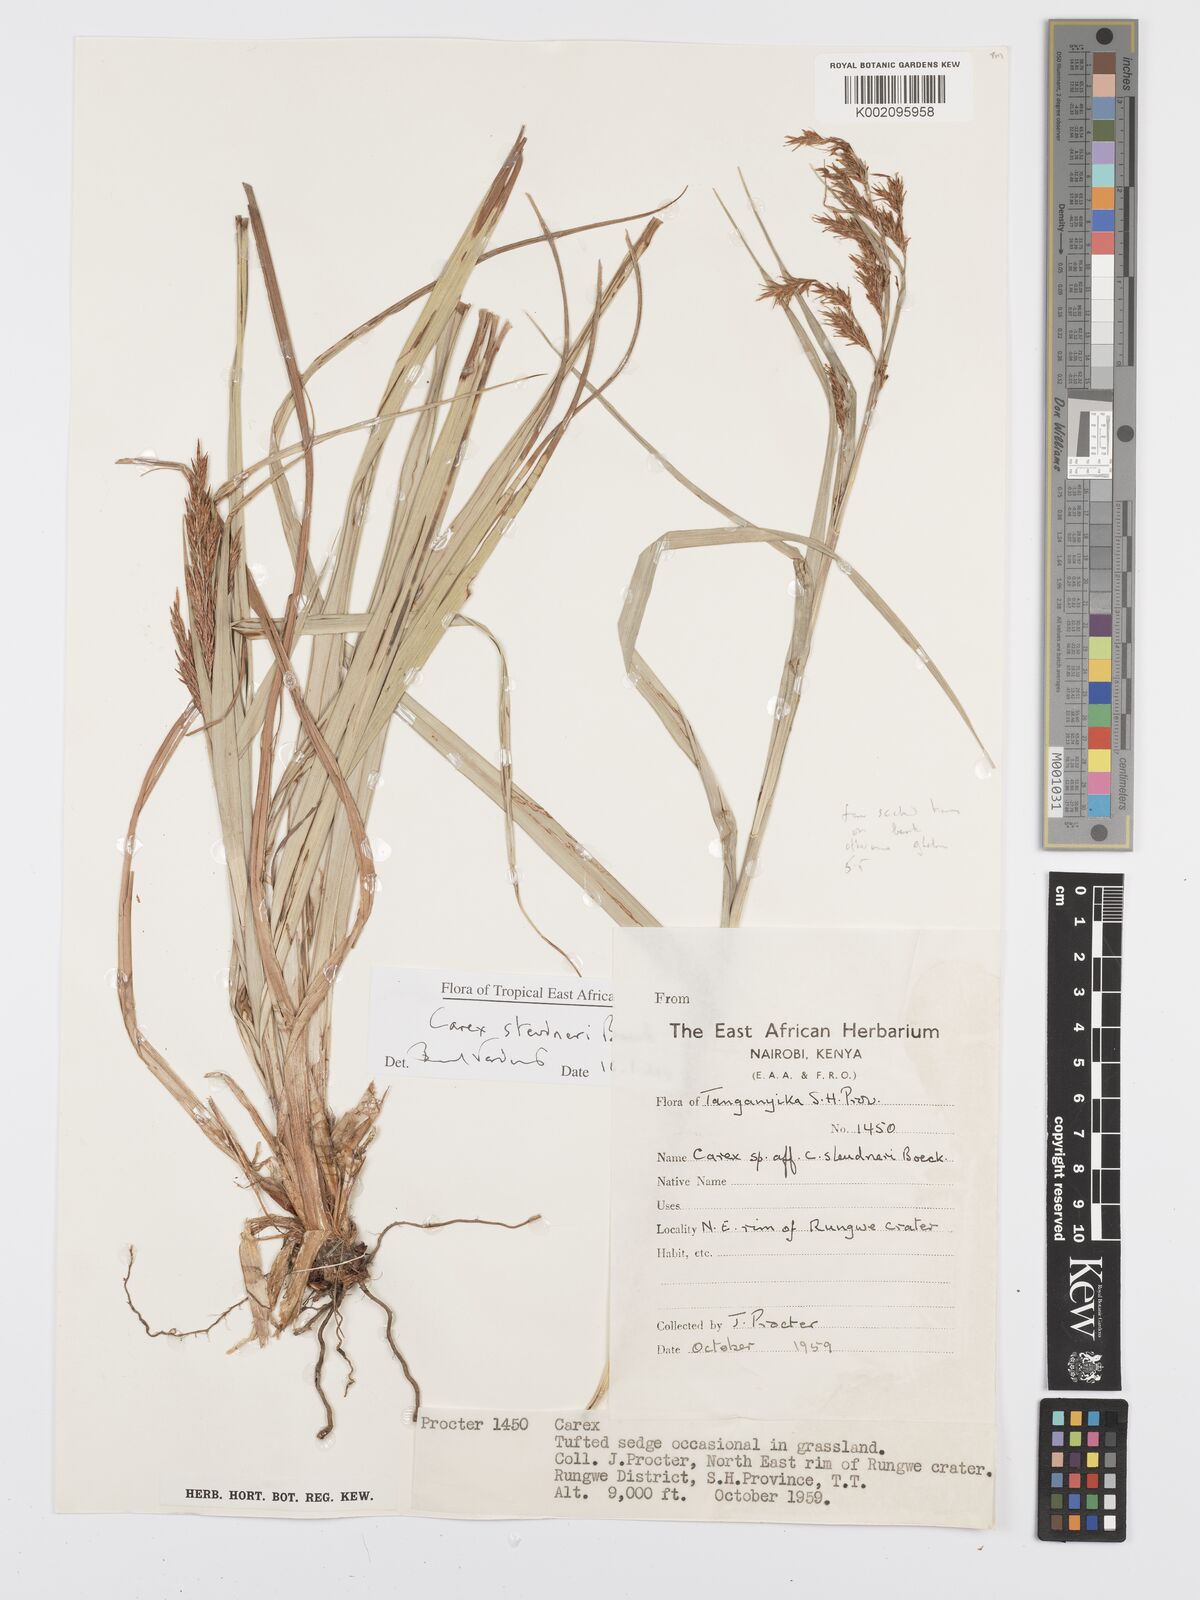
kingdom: Plantae
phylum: Tracheophyta
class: Liliopsida
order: Poales
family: Cyperaceae
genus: Carex
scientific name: Carex steudneri
